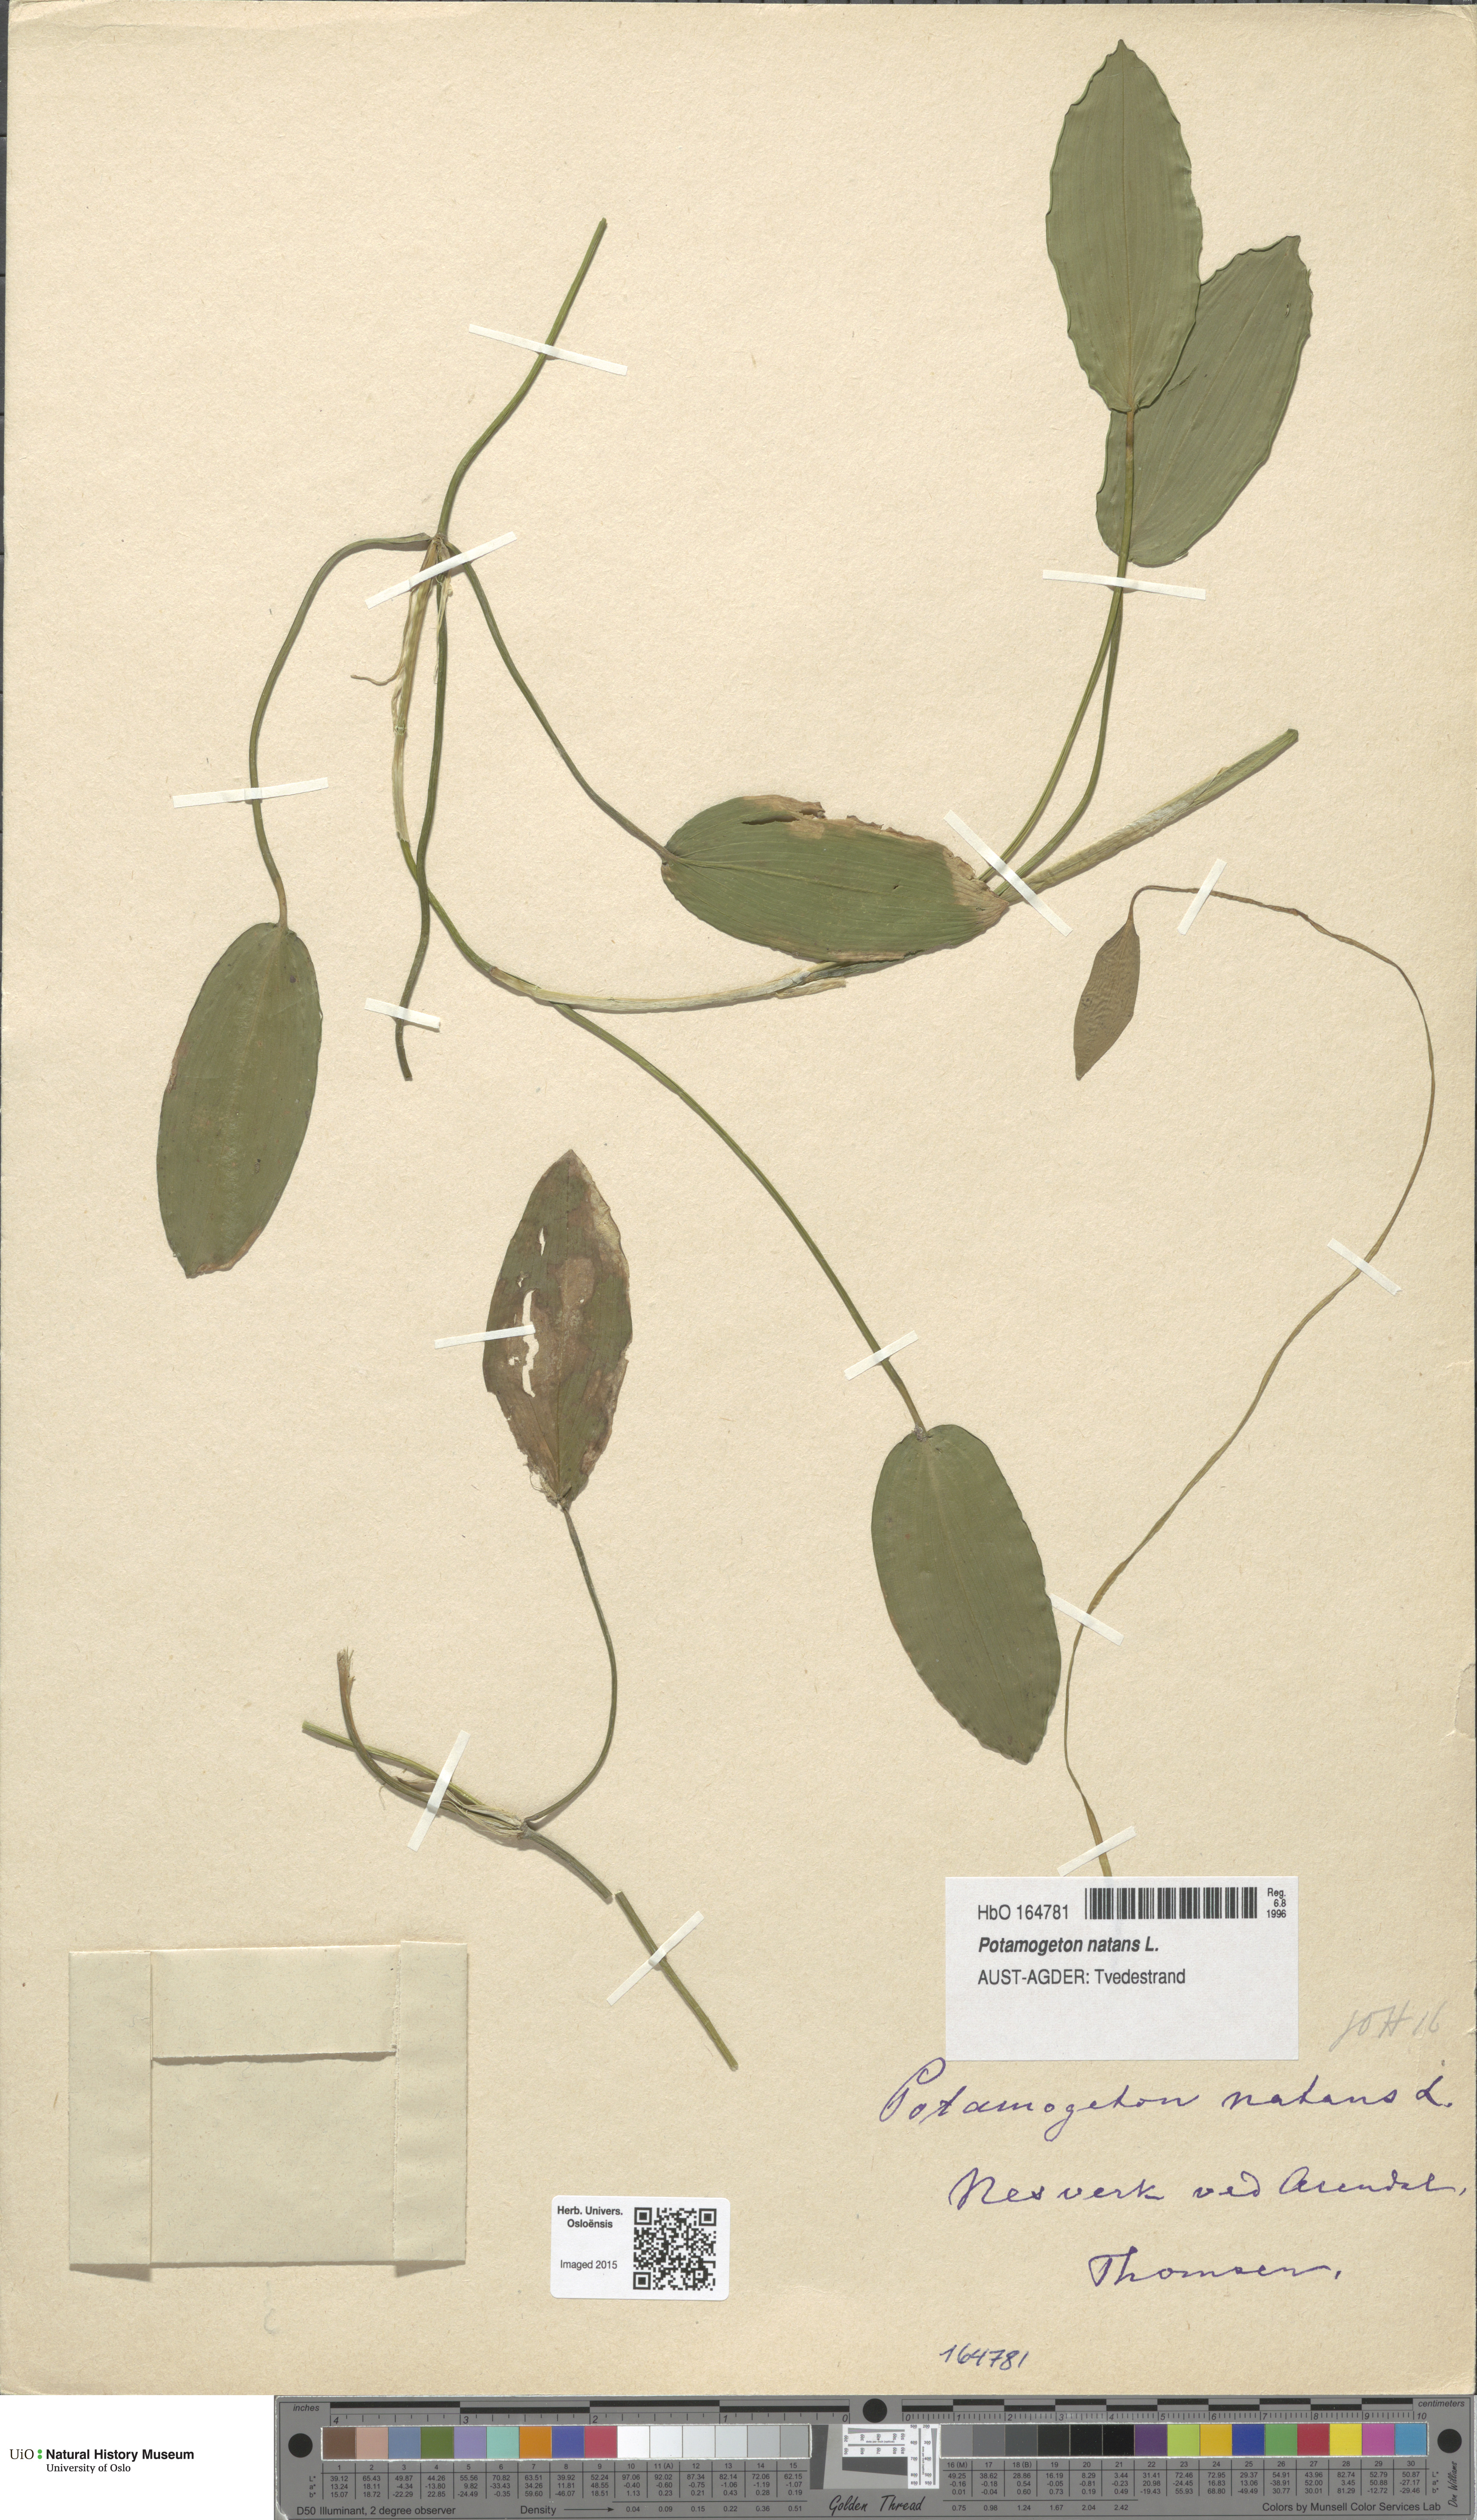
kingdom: Plantae
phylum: Tracheophyta
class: Liliopsida
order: Alismatales
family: Potamogetonaceae
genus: Potamogeton
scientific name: Potamogeton natans
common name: Broad-leaved pondweed
